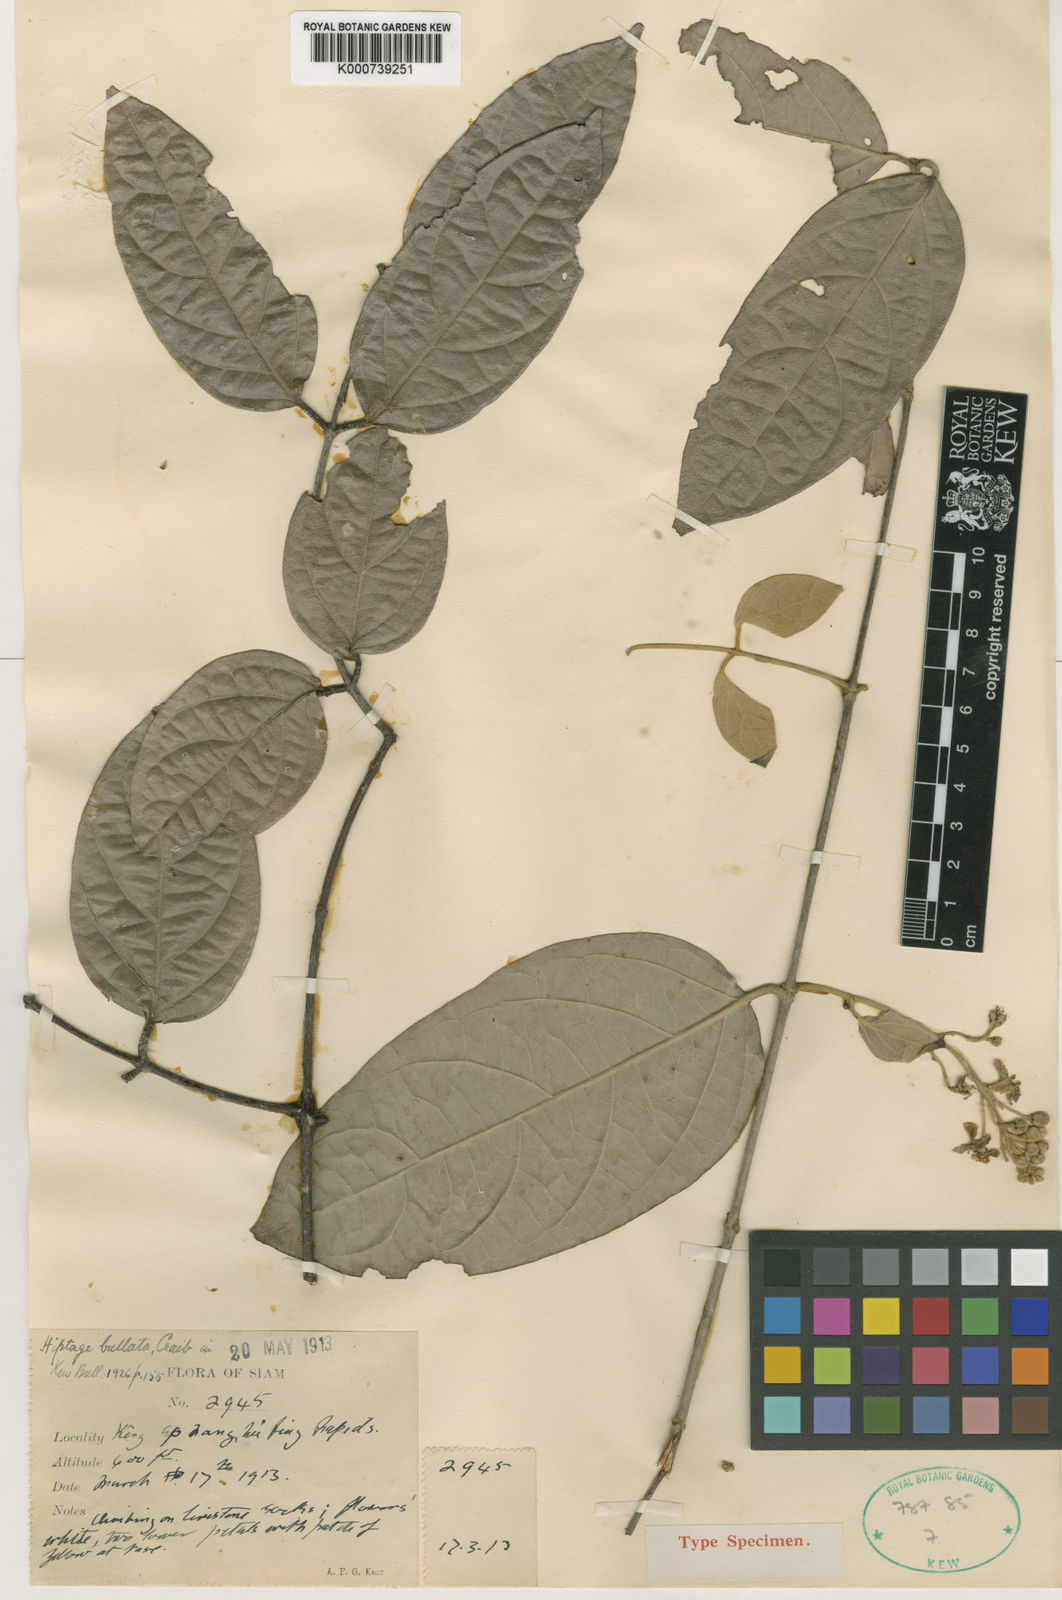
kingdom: Plantae
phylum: Tracheophyta
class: Magnoliopsida
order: Malpighiales
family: Malpighiaceae
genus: Hiptage
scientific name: Hiptage bullata
